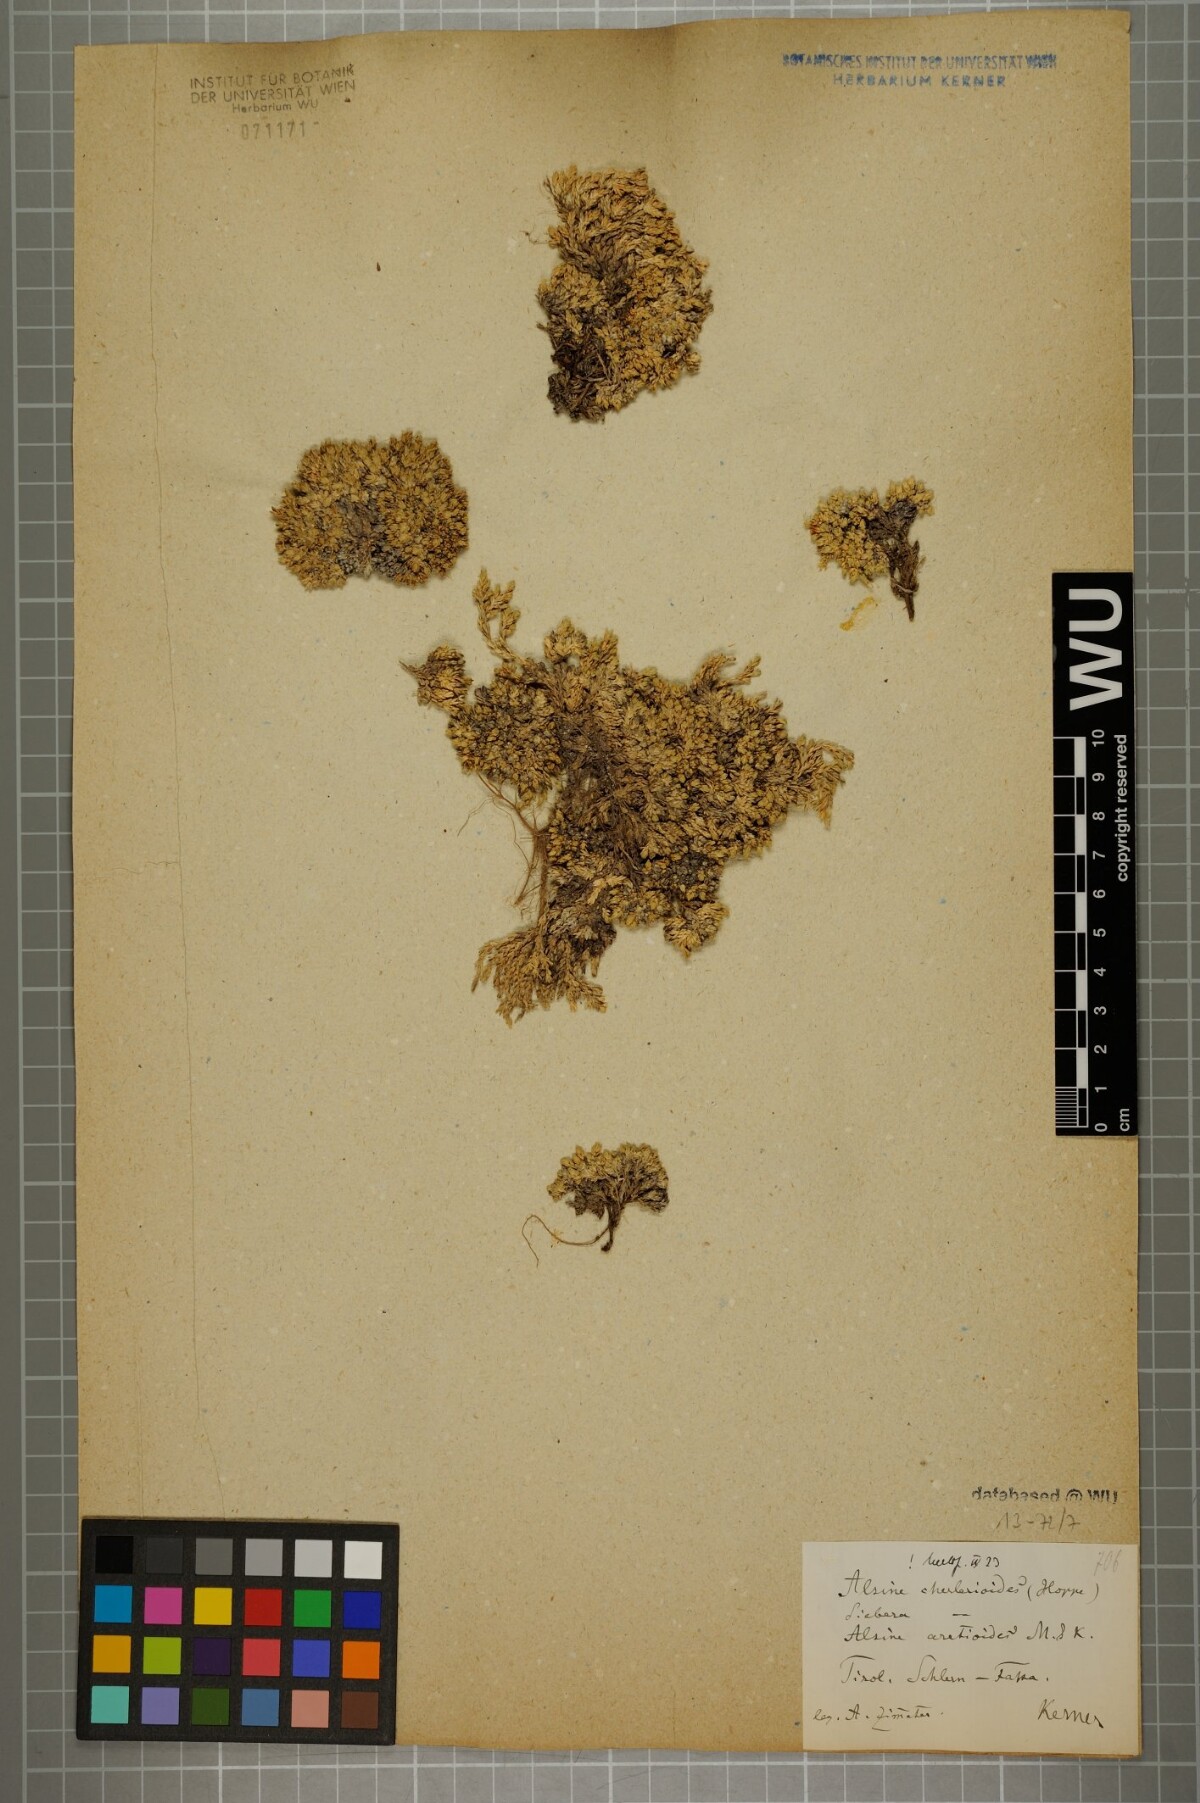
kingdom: Plantae
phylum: Tracheophyta
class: Magnoliopsida
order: Caryophyllales
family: Caryophyllaceae
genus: Facchinia
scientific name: Facchinia cherlerioides
